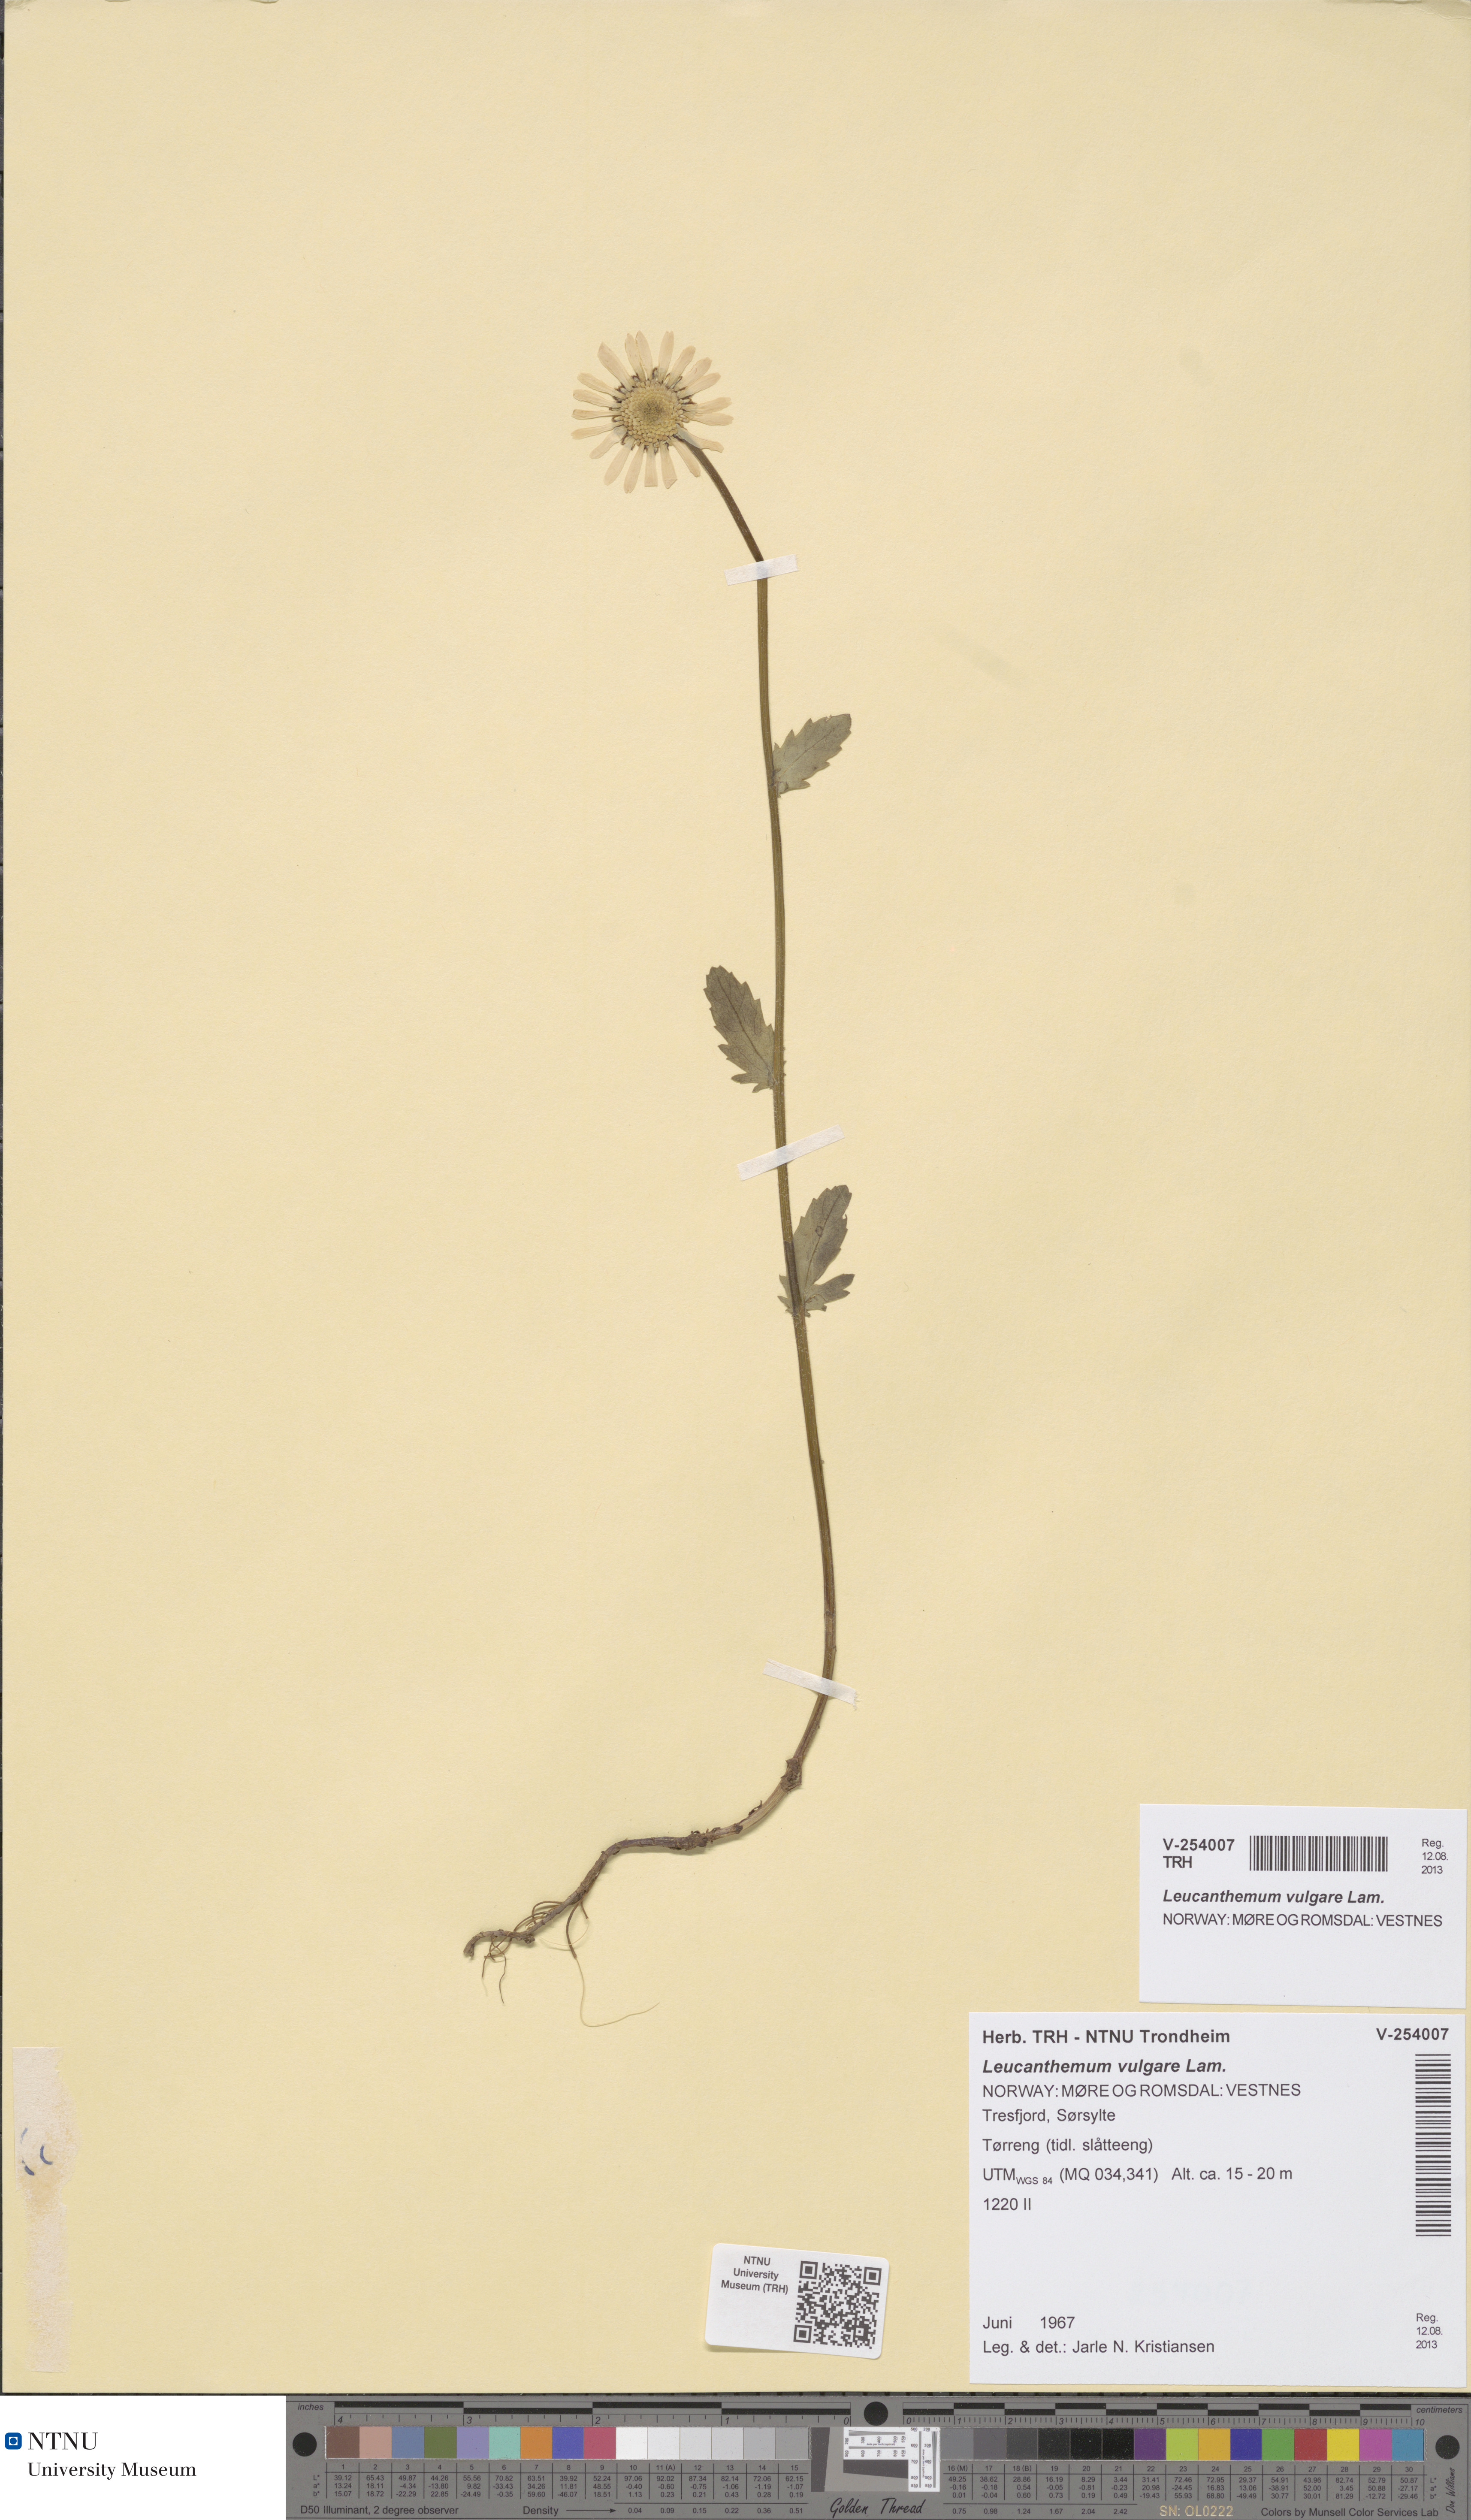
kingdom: Plantae
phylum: Tracheophyta
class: Magnoliopsida
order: Asterales
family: Asteraceae
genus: Leucanthemum
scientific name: Leucanthemum vulgare
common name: Oxeye daisy
